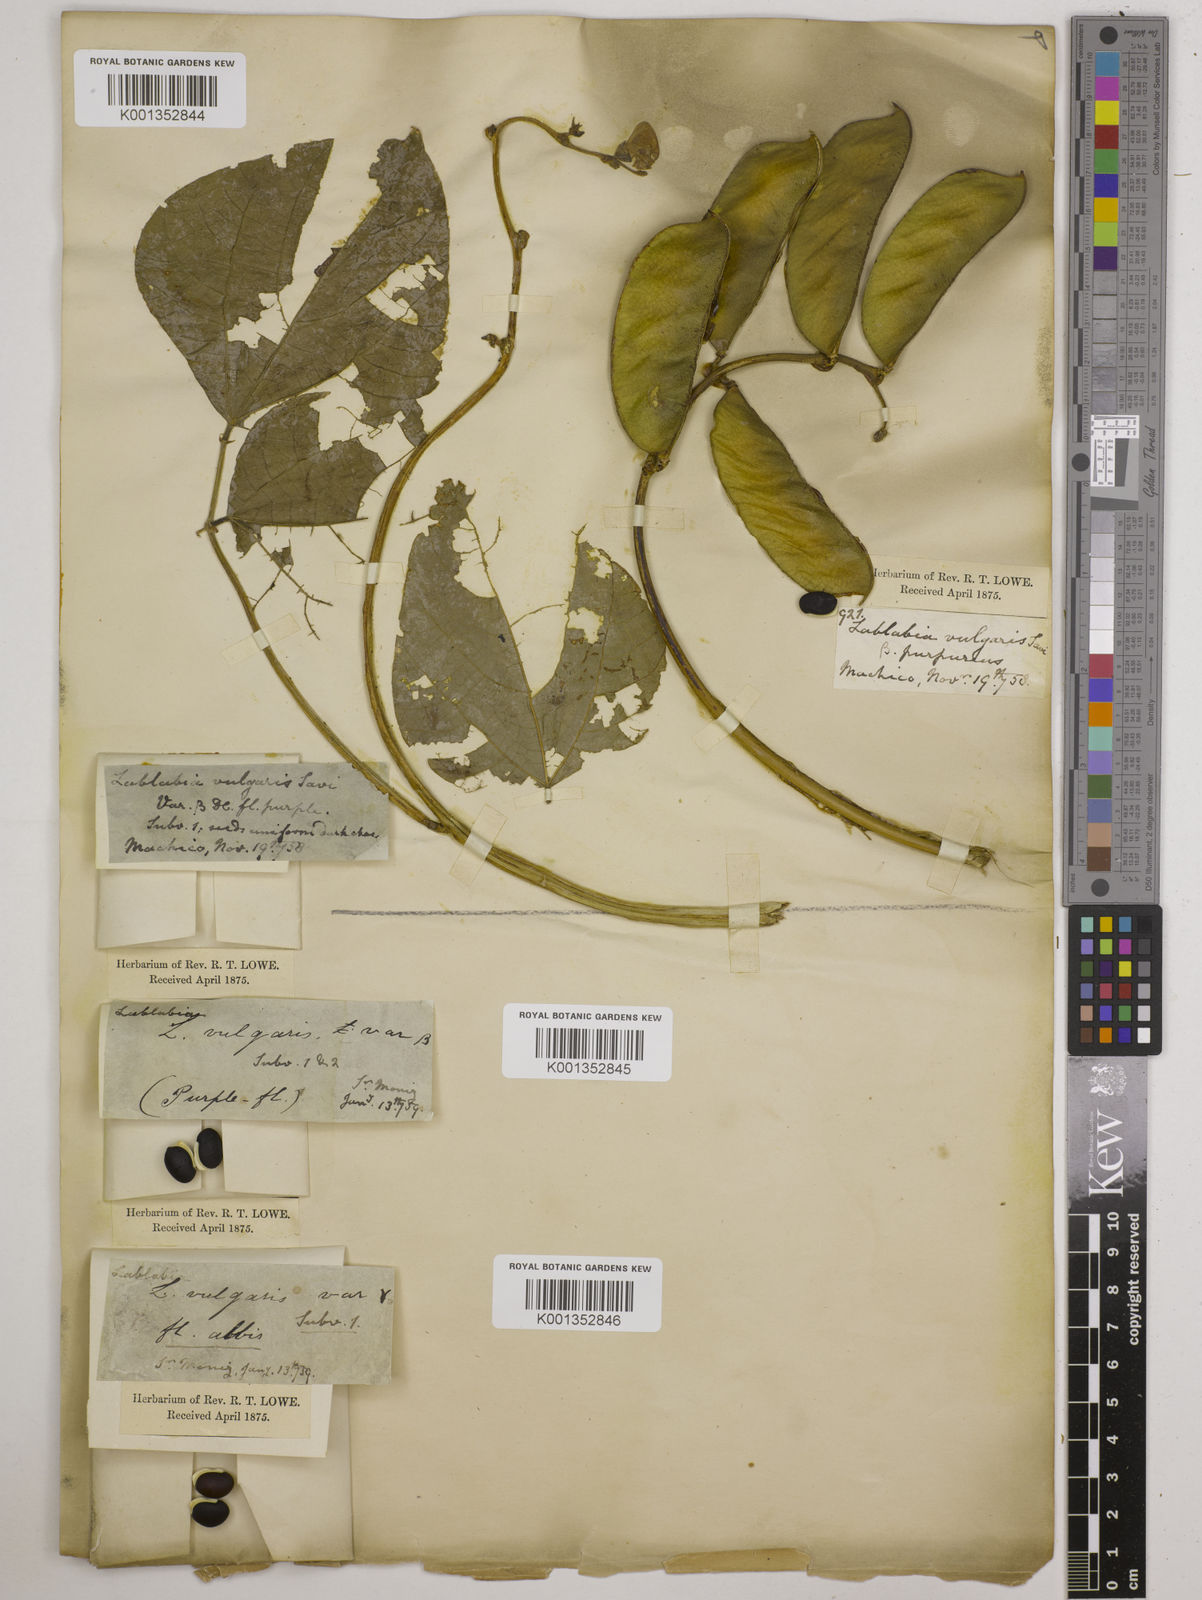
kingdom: Plantae
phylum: Tracheophyta
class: Magnoliopsida
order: Fabales
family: Fabaceae
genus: Lablab
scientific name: Lablab purpureus
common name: Lablab-bean
